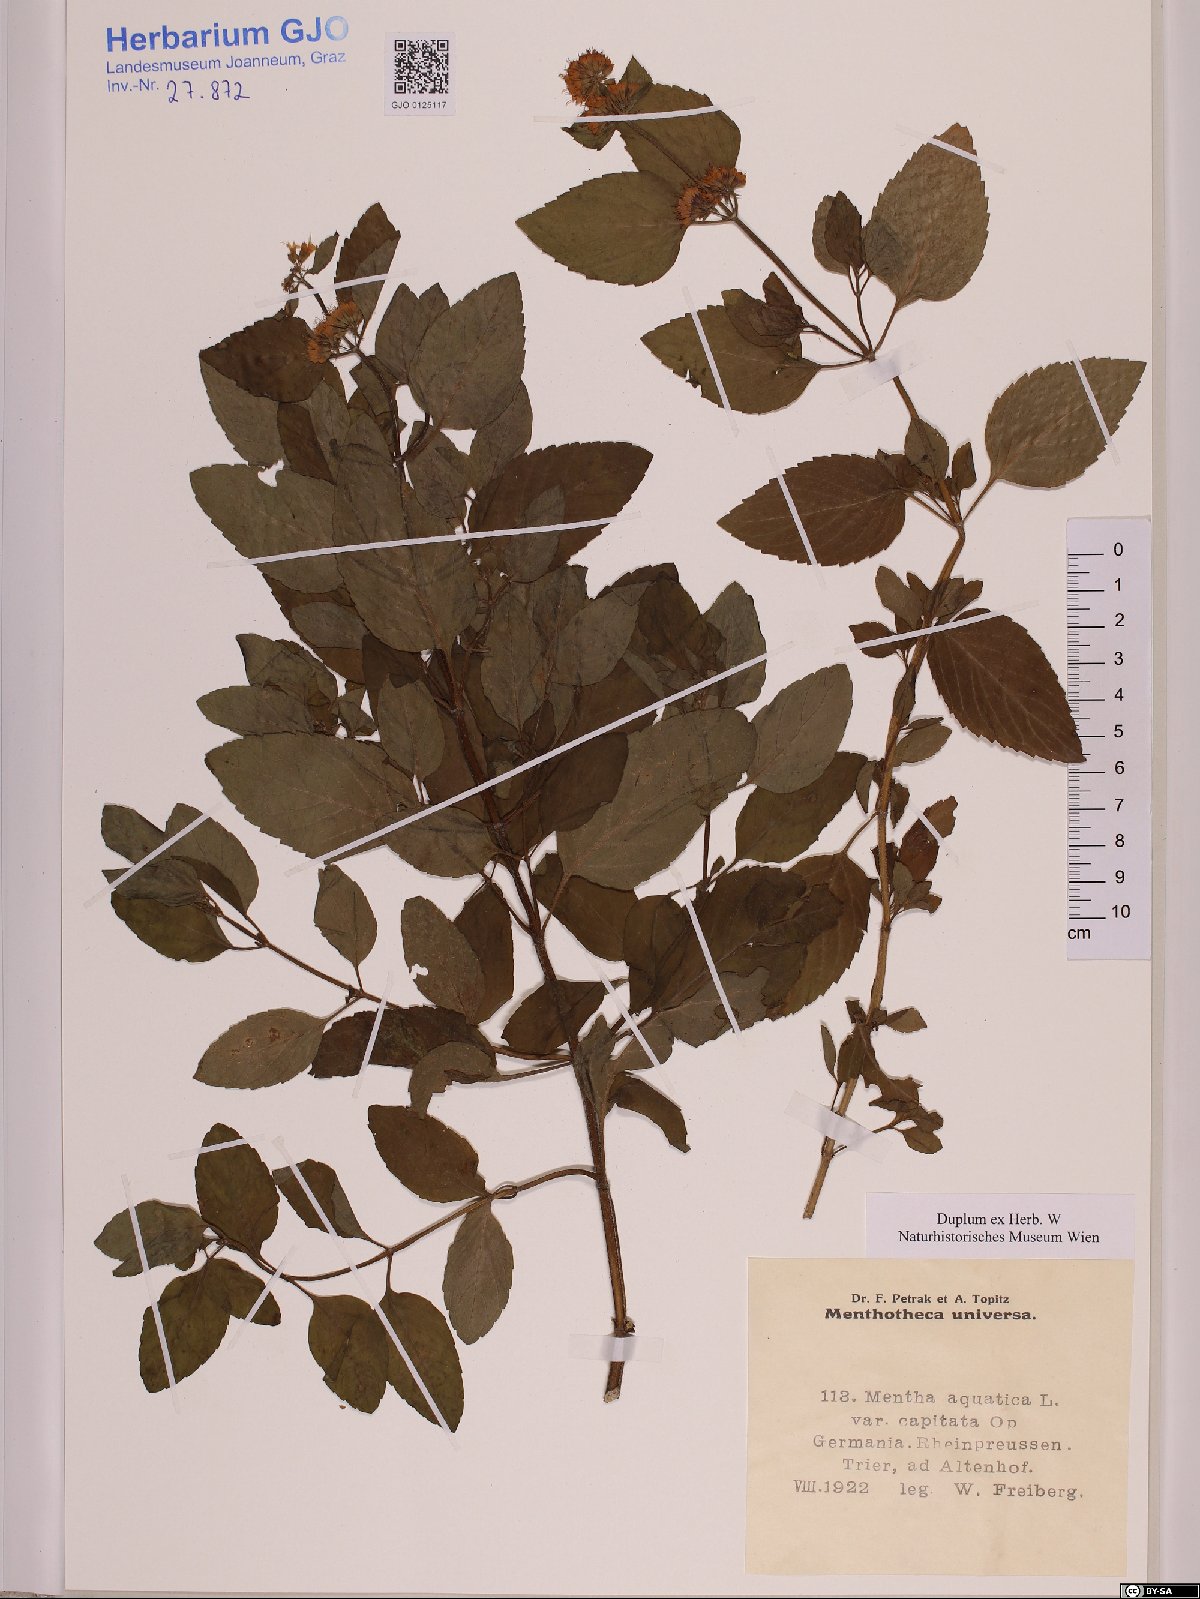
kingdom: Plantae
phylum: Tracheophyta
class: Magnoliopsida
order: Lamiales
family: Lamiaceae
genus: Mentha
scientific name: Mentha aquatica
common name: Water mint
